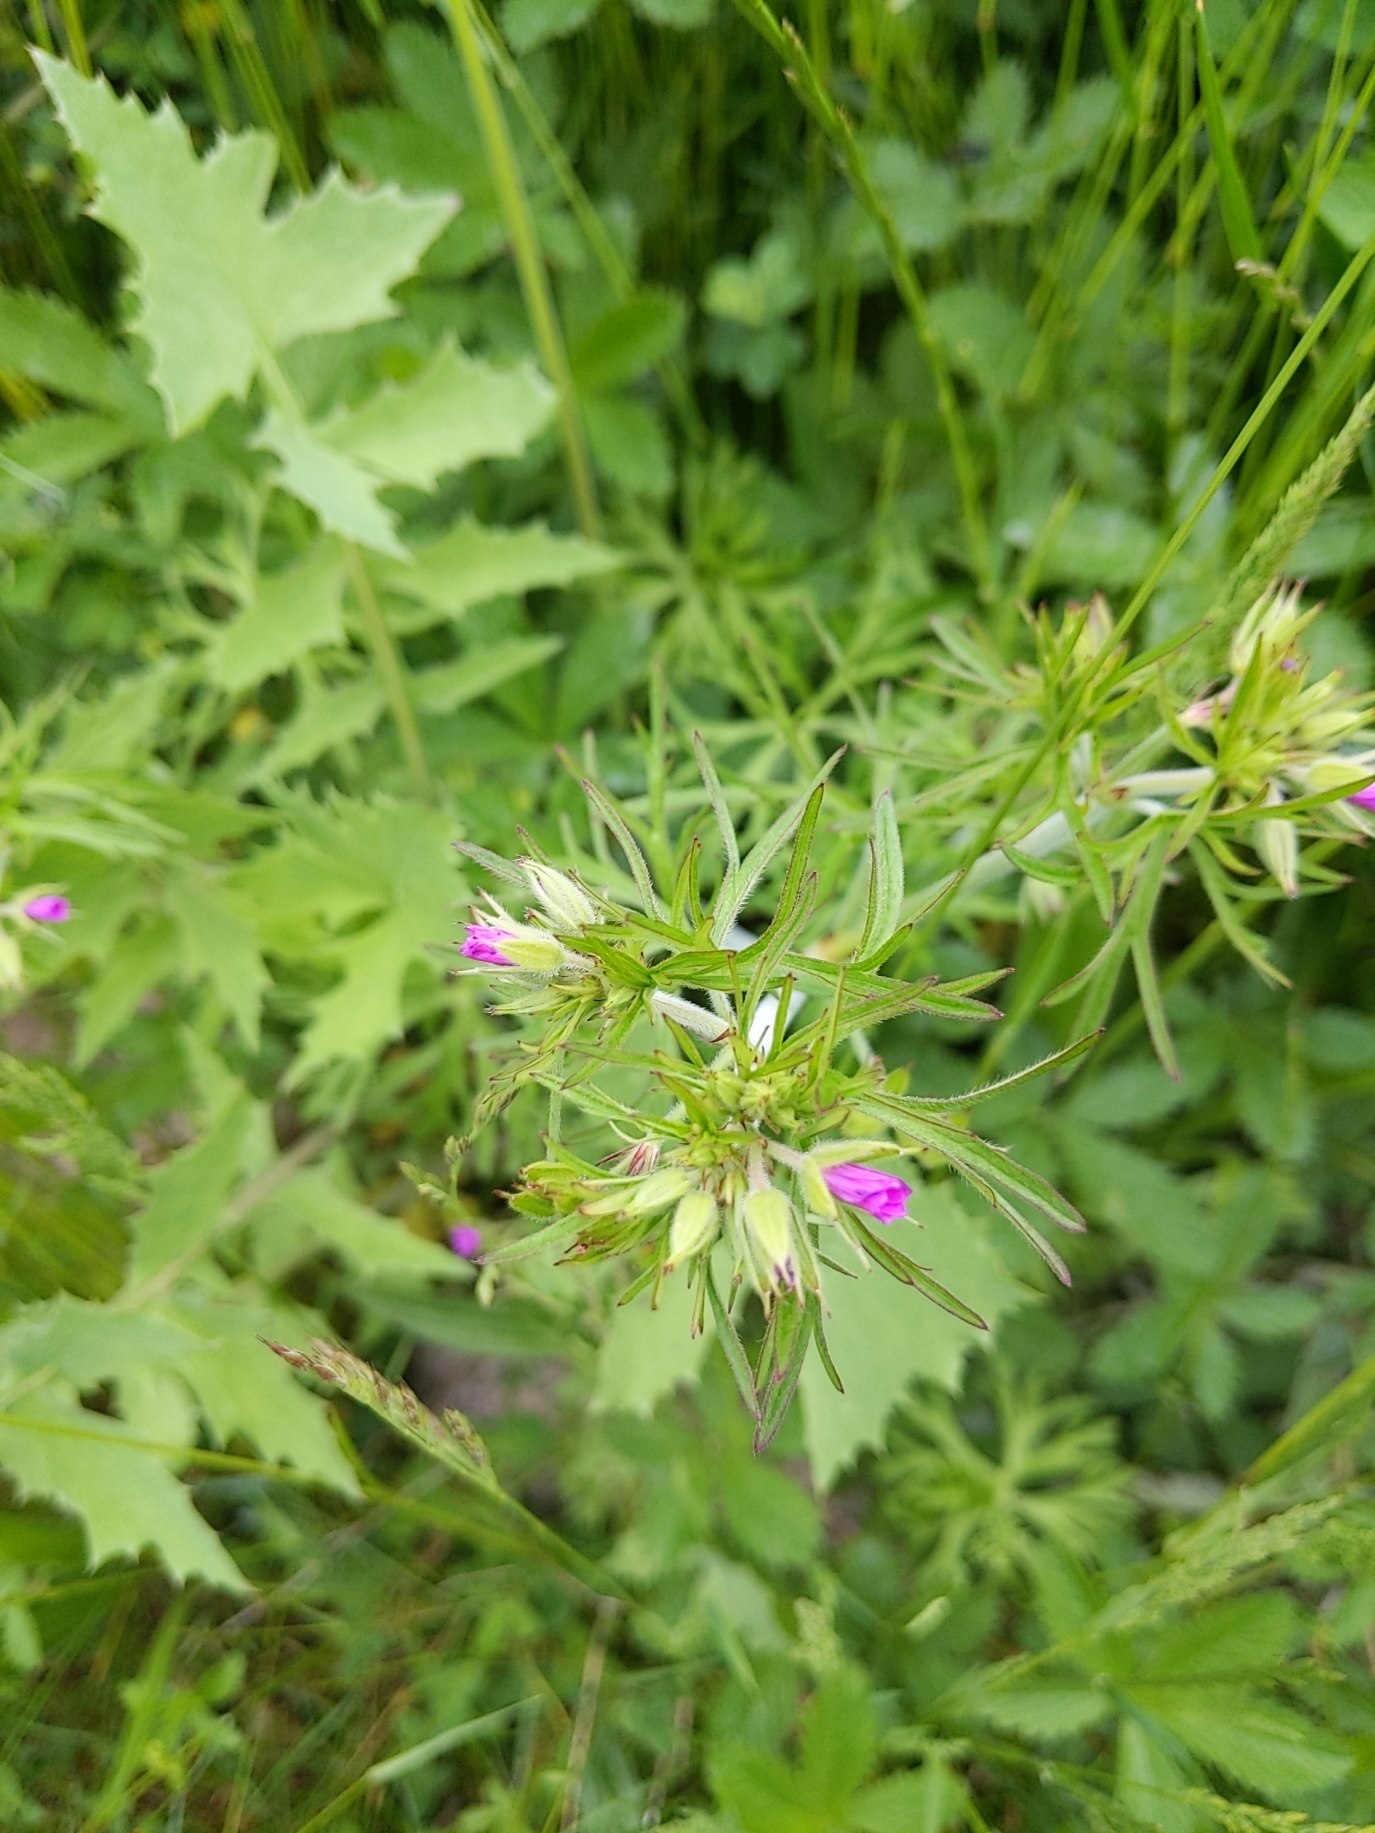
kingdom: Plantae
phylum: Tracheophyta
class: Magnoliopsida
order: Geraniales
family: Geraniaceae
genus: Geranium
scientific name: Geranium dissectum
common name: Kløftet storkenæb
